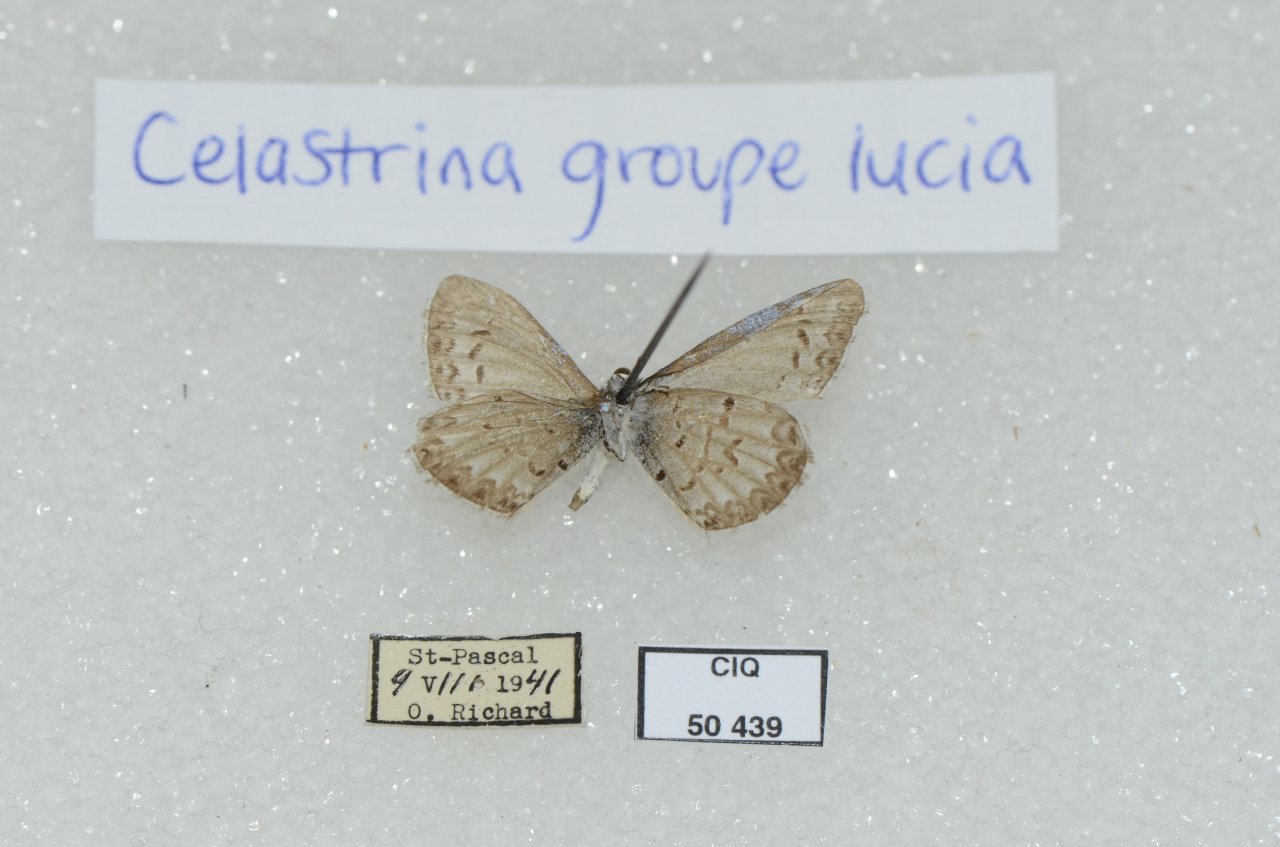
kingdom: Animalia
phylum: Arthropoda
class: Insecta
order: Lepidoptera
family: Lycaenidae
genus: Celastrina
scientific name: Celastrina lucia
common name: Northern Spring Azure
